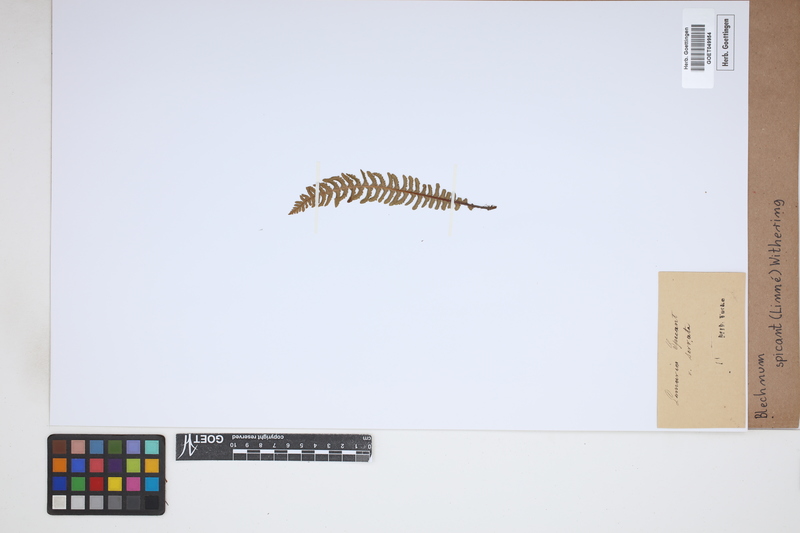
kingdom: Plantae
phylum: Tracheophyta
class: Polypodiopsida
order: Polypodiales
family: Blechnaceae
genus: Struthiopteris
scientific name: Struthiopteris spicant
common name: Deer fern
